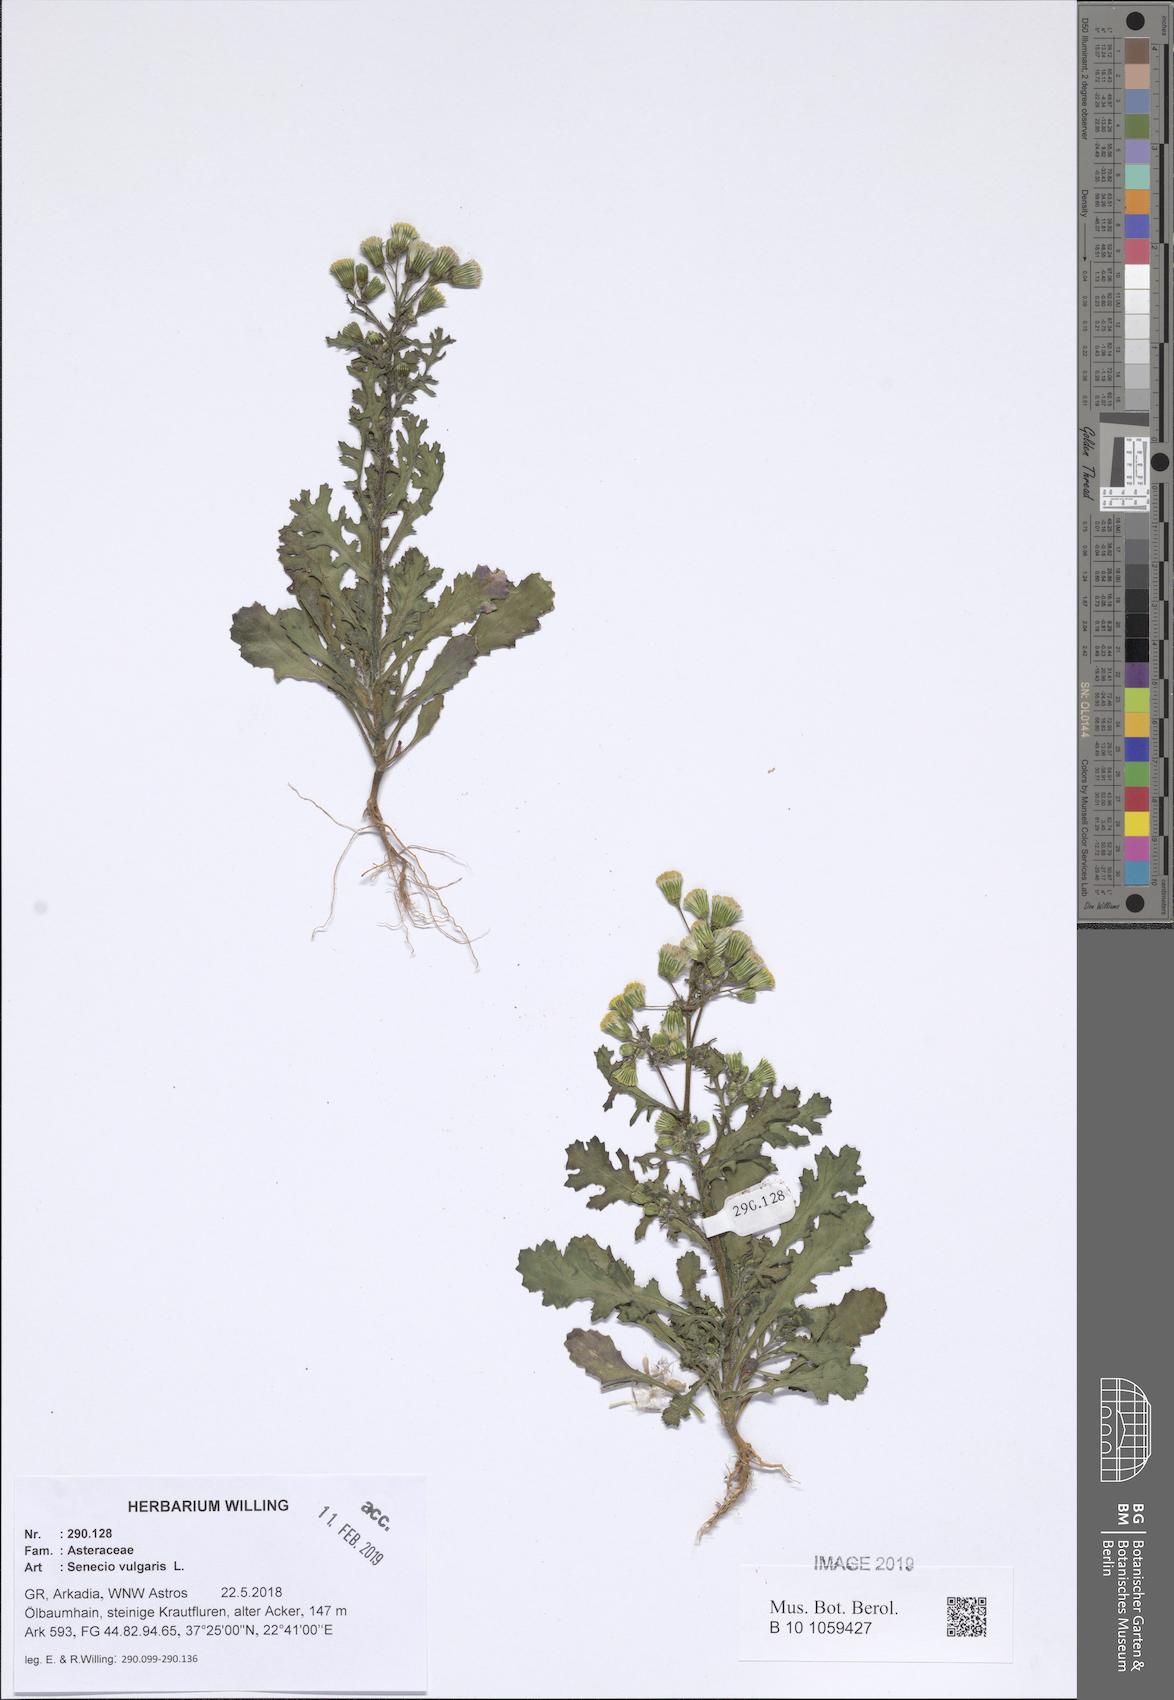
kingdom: Plantae
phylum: Tracheophyta
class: Magnoliopsida
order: Asterales
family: Asteraceae
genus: Senecio
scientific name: Senecio vulgaris
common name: Old-man-in-the-spring
